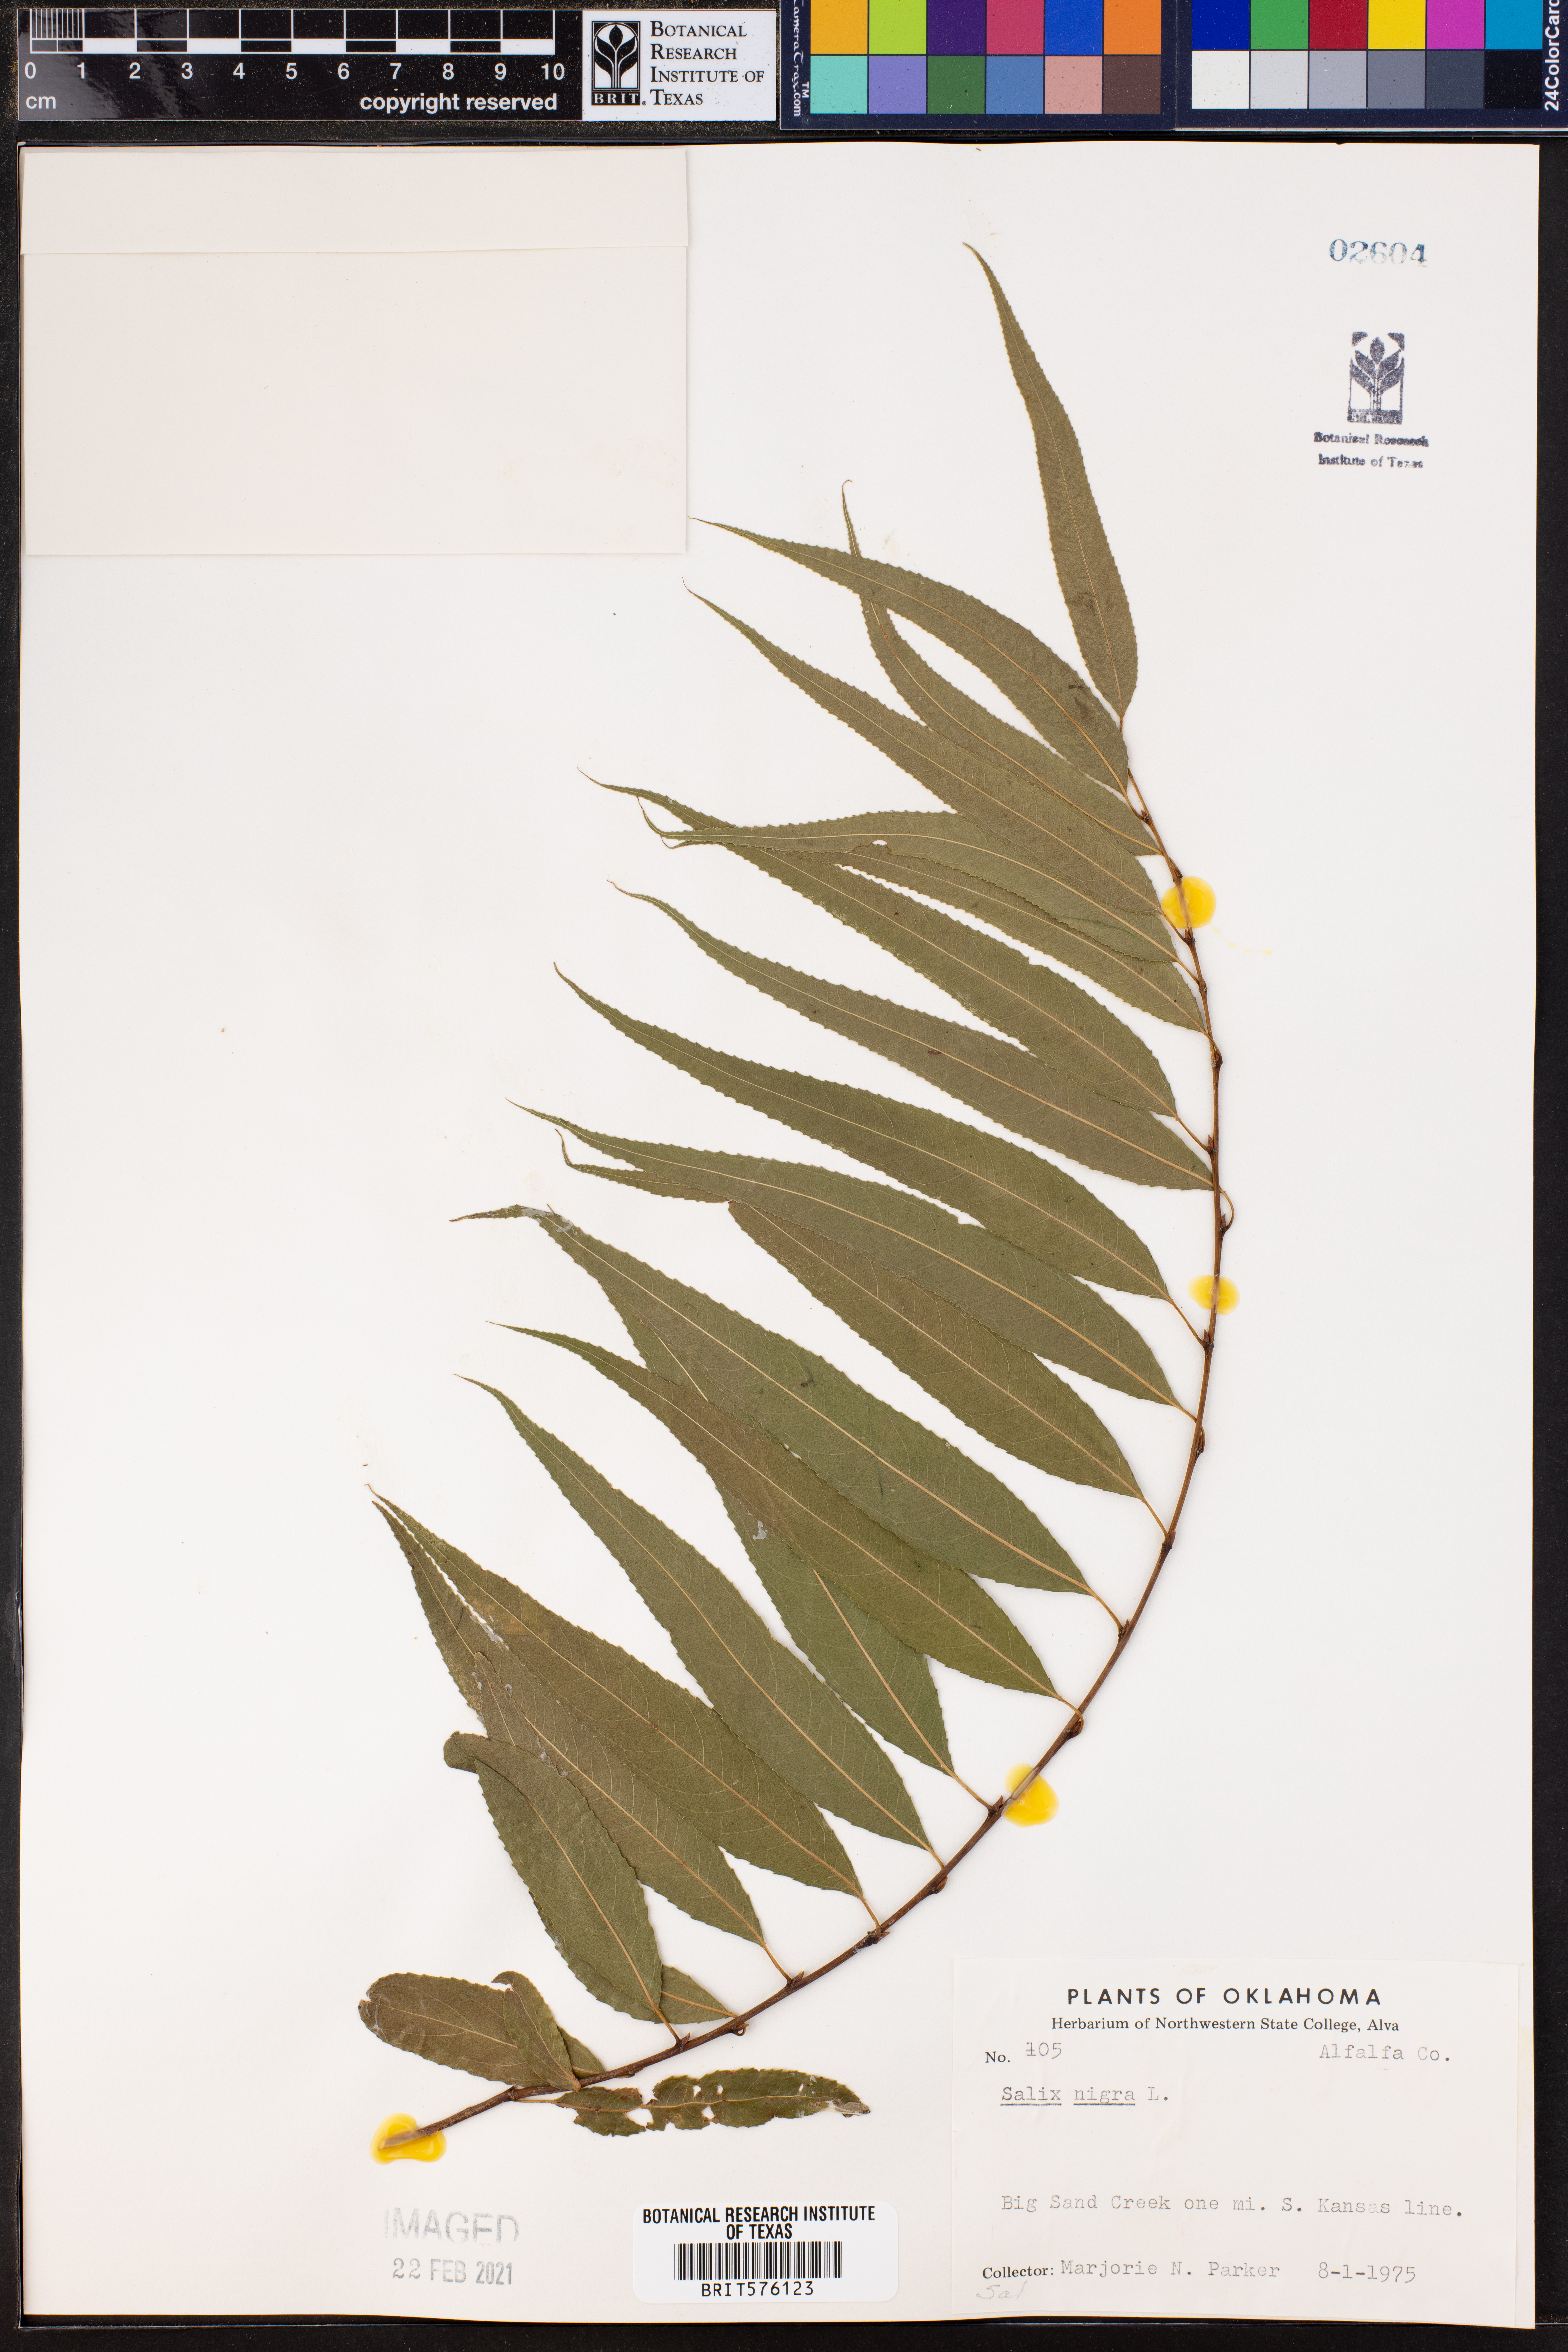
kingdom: Plantae
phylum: Tracheophyta
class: Magnoliopsida
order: Malpighiales
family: Salicaceae
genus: Salix
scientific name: Salix nigra
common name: Black willow
